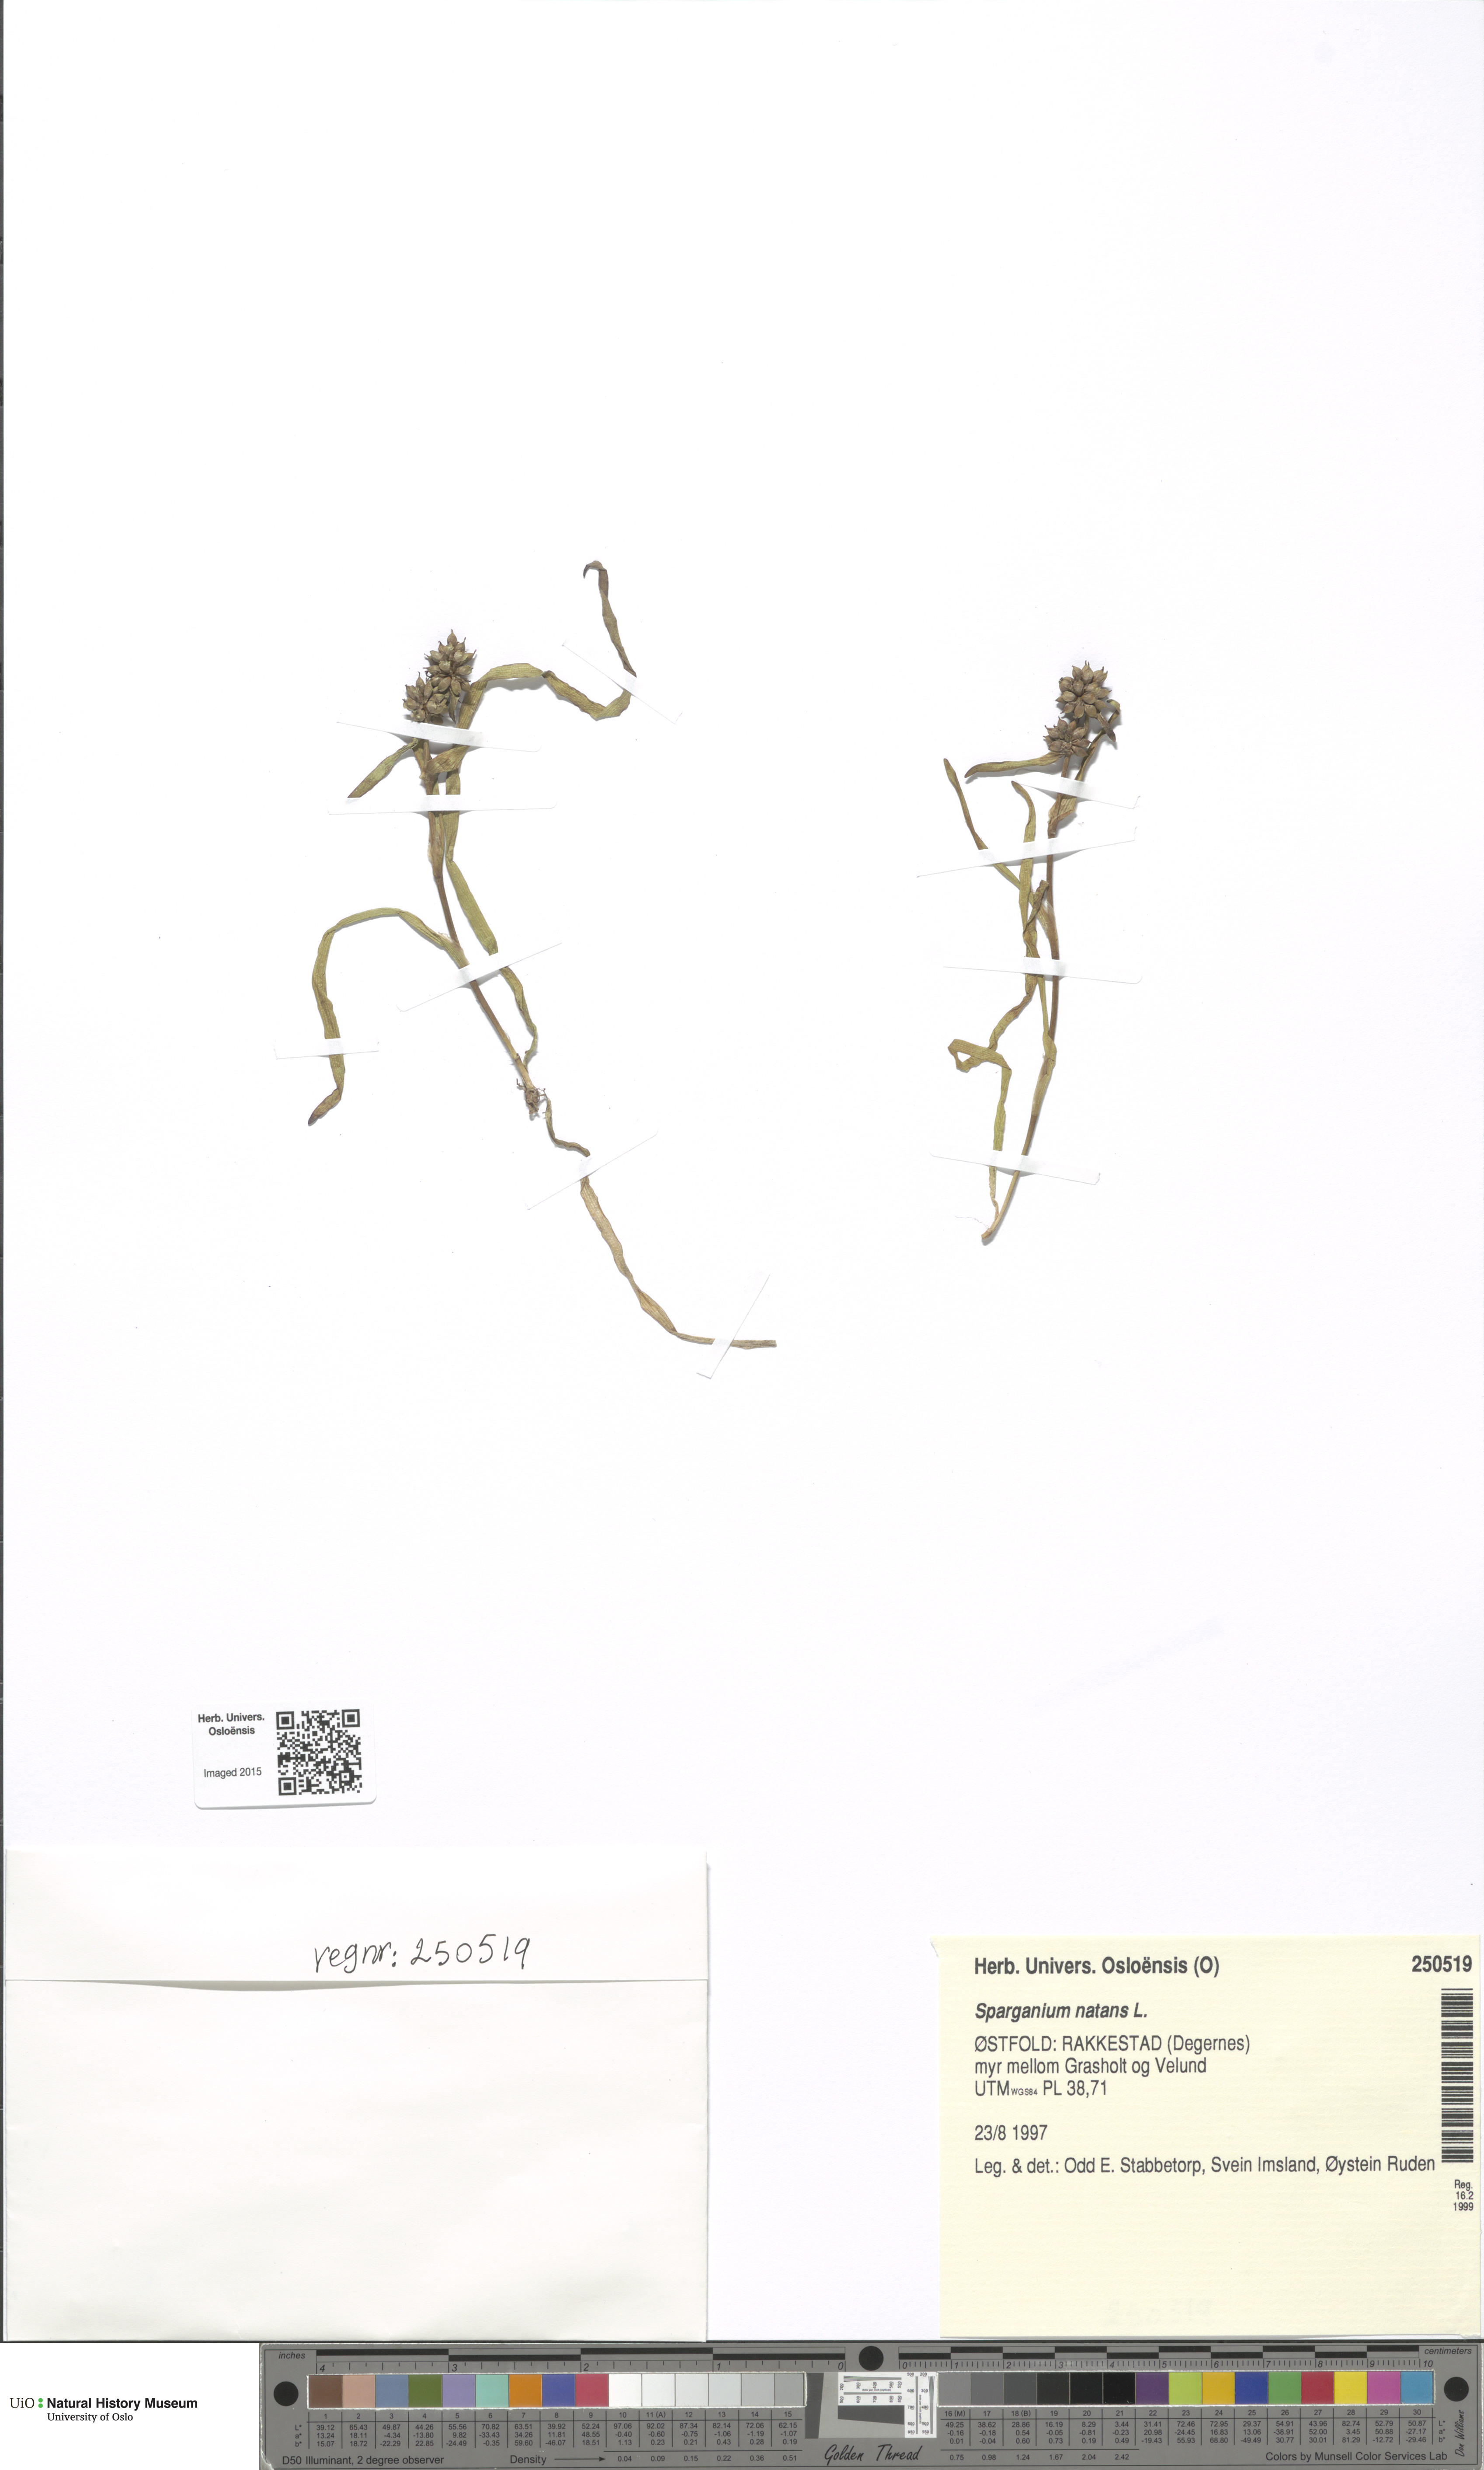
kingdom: Plantae
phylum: Tracheophyta
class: Liliopsida
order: Poales
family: Typhaceae
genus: Sparganium
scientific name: Sparganium natans
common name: Least bur-reed
